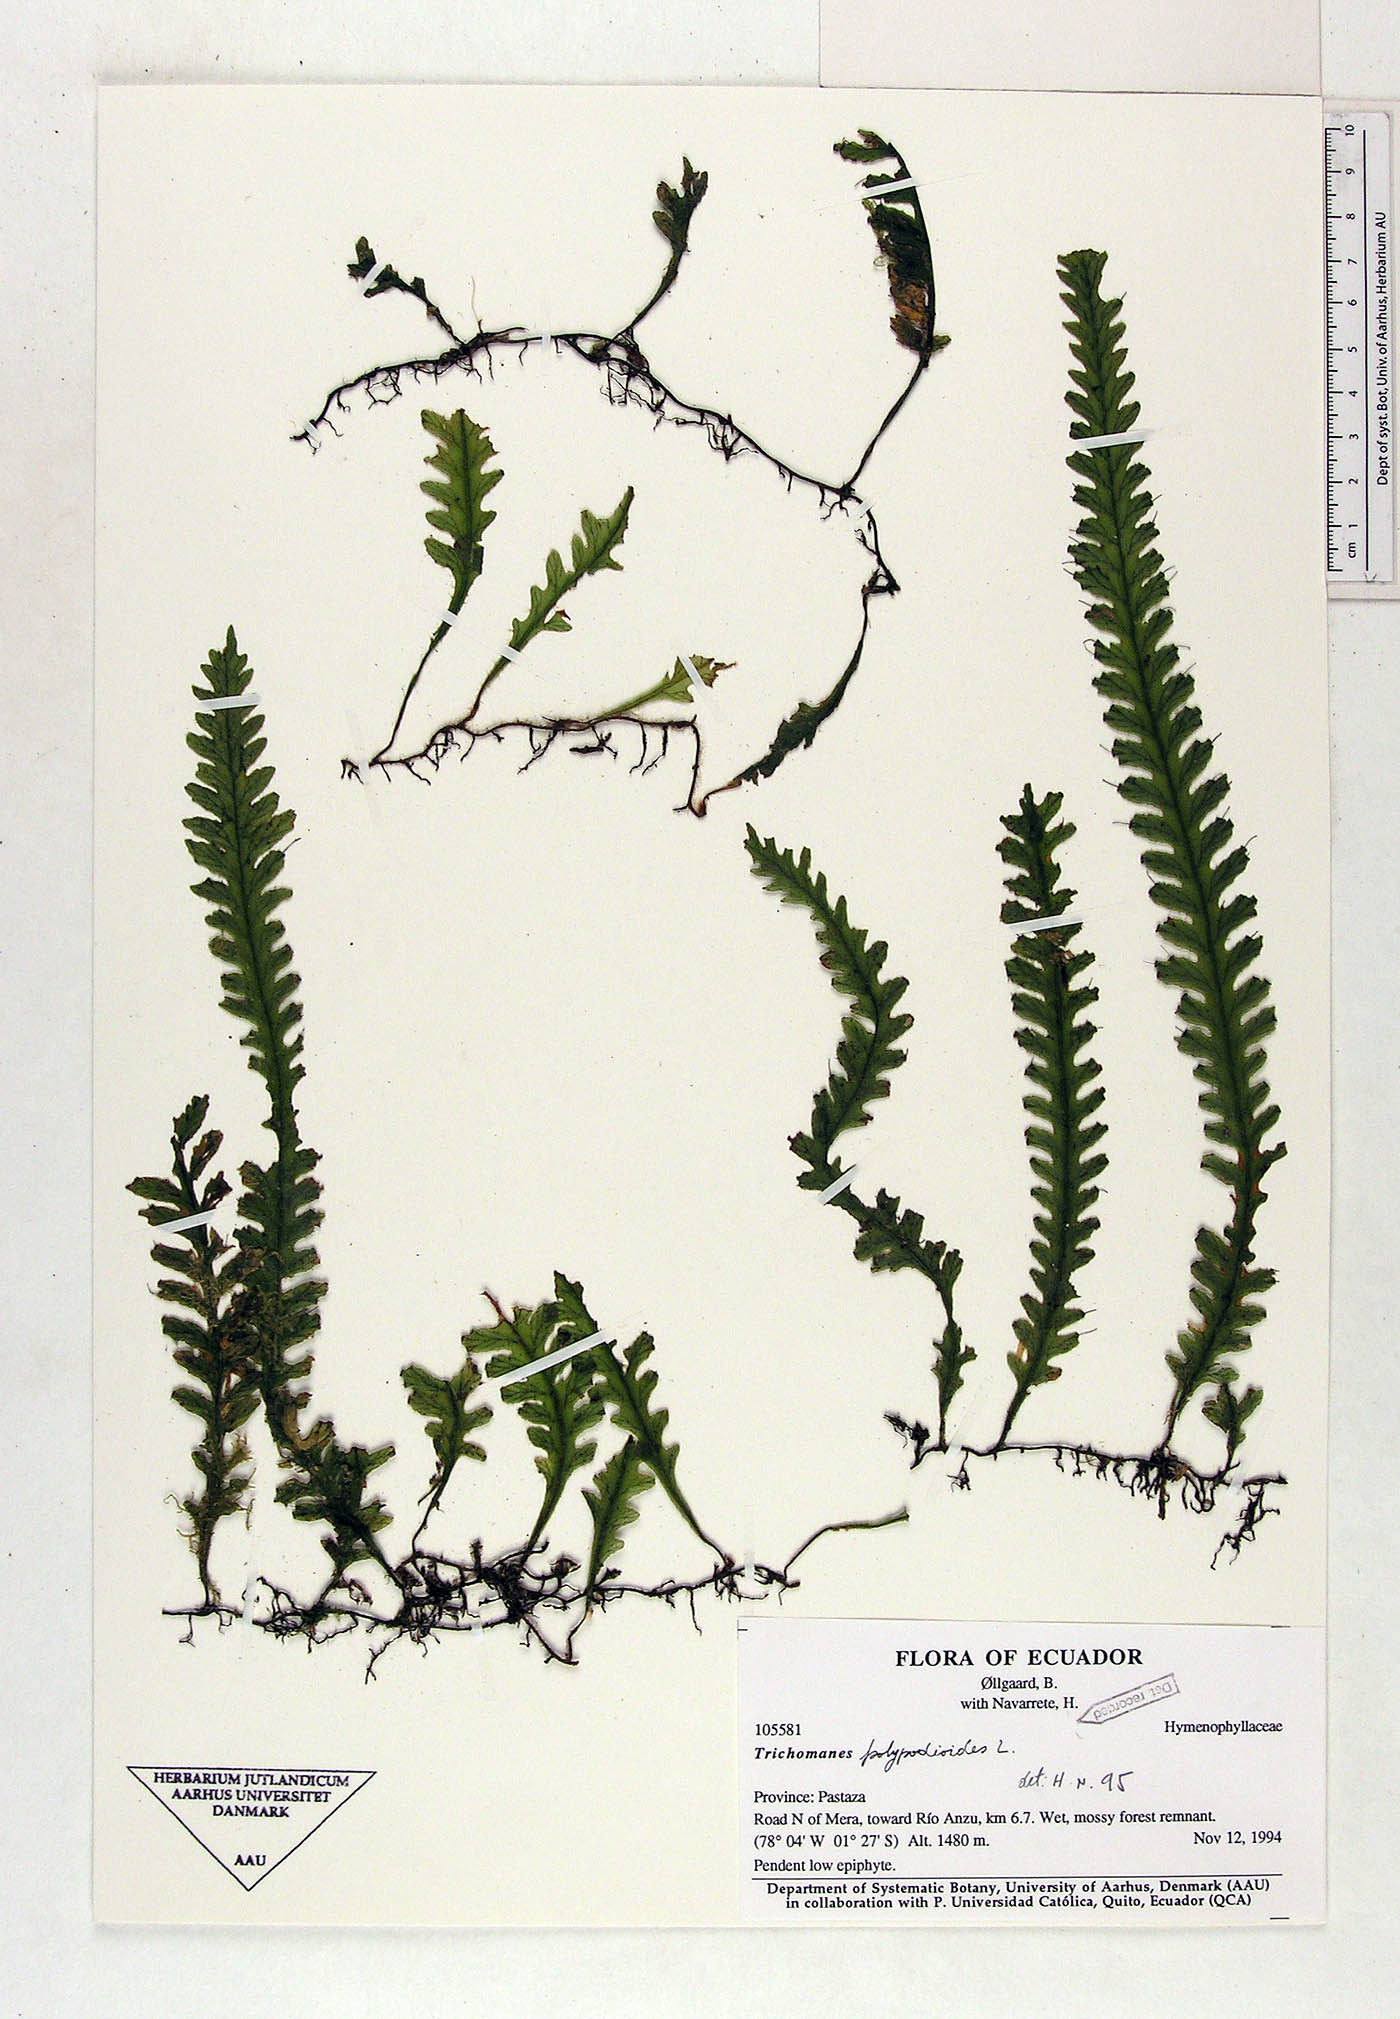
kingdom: Plantae
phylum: Tracheophyta
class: Polypodiopsida
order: Hymenophyllales
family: Hymenophyllaceae
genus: Trichomanes
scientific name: Trichomanes polypodioides
